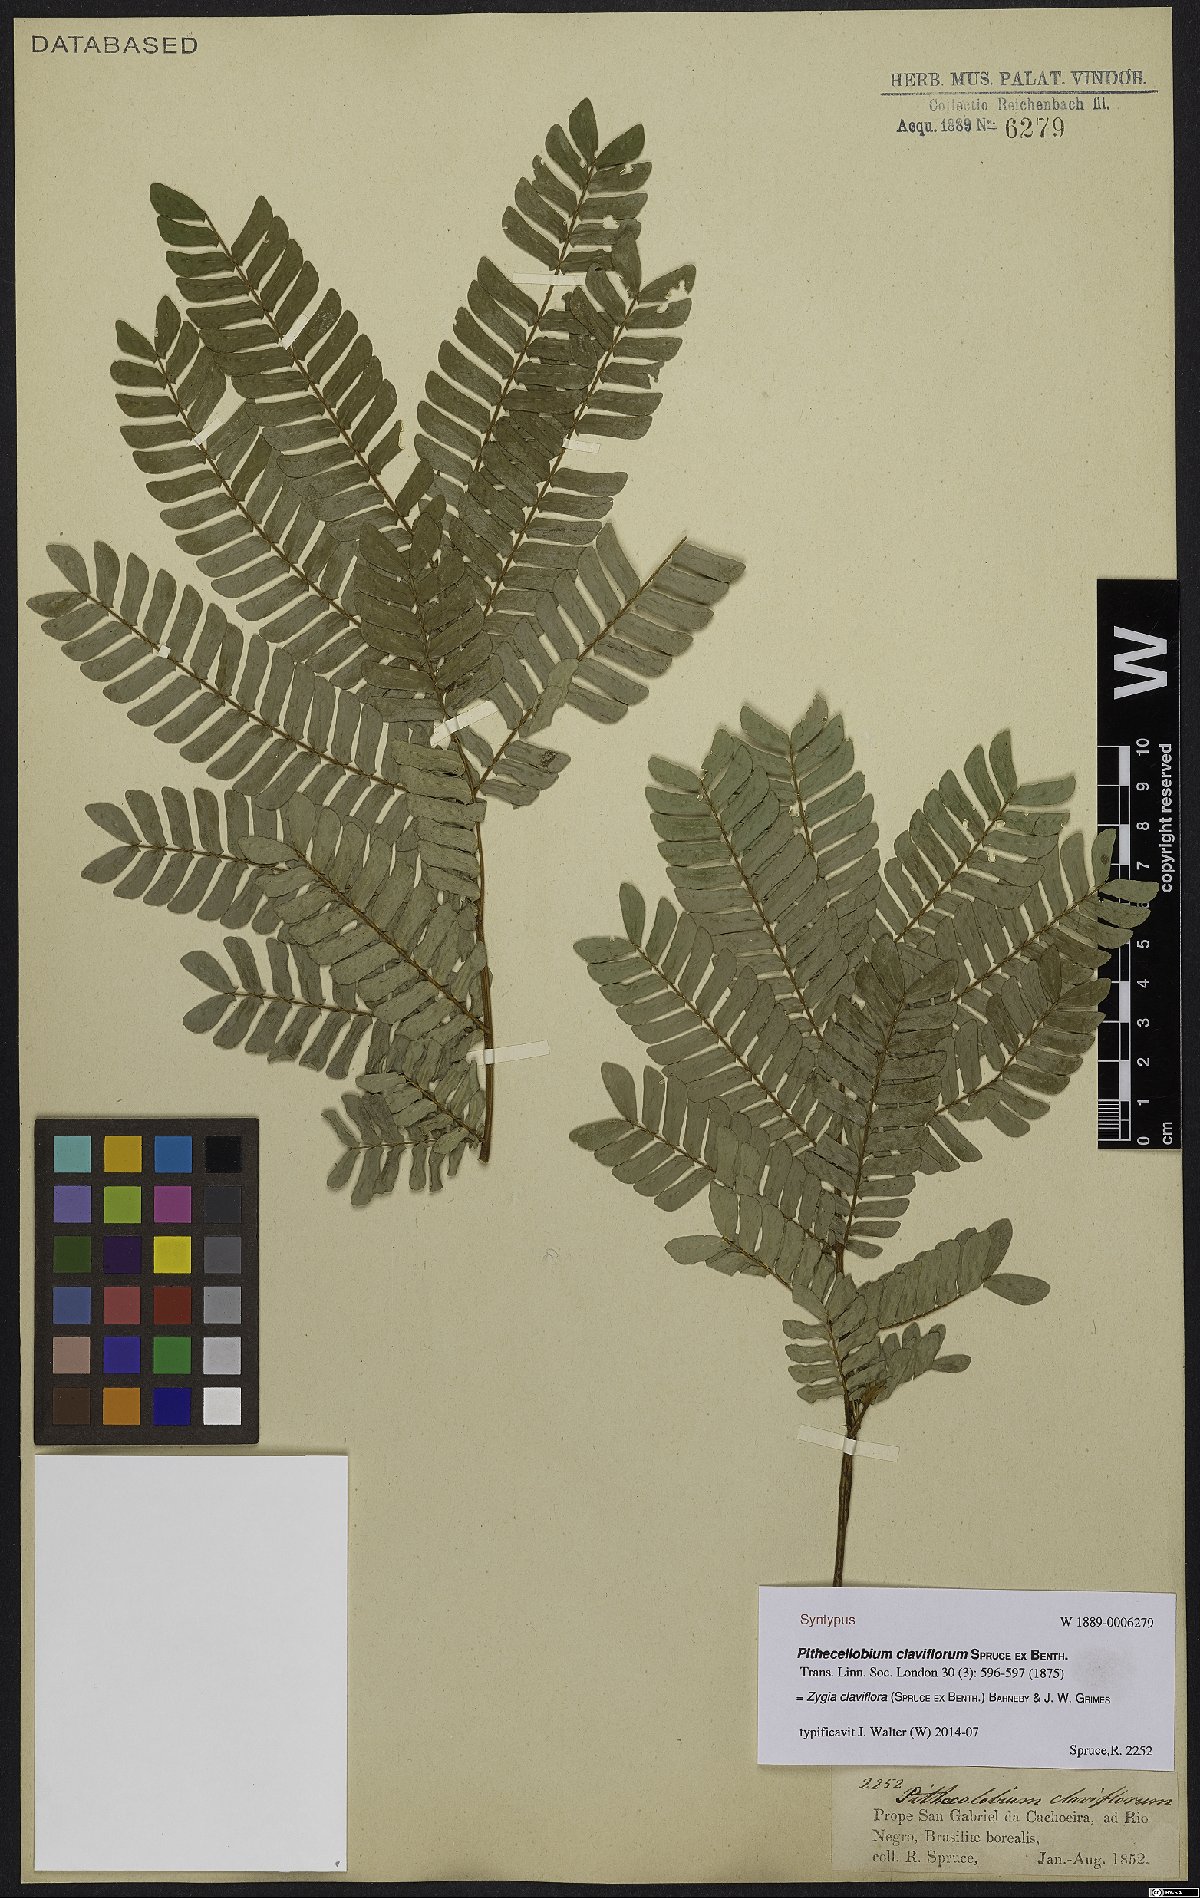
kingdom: Plantae
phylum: Tracheophyta
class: Magnoliopsida
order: Fabales
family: Fabaceae
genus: Zygia
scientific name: Zygia claviflora
